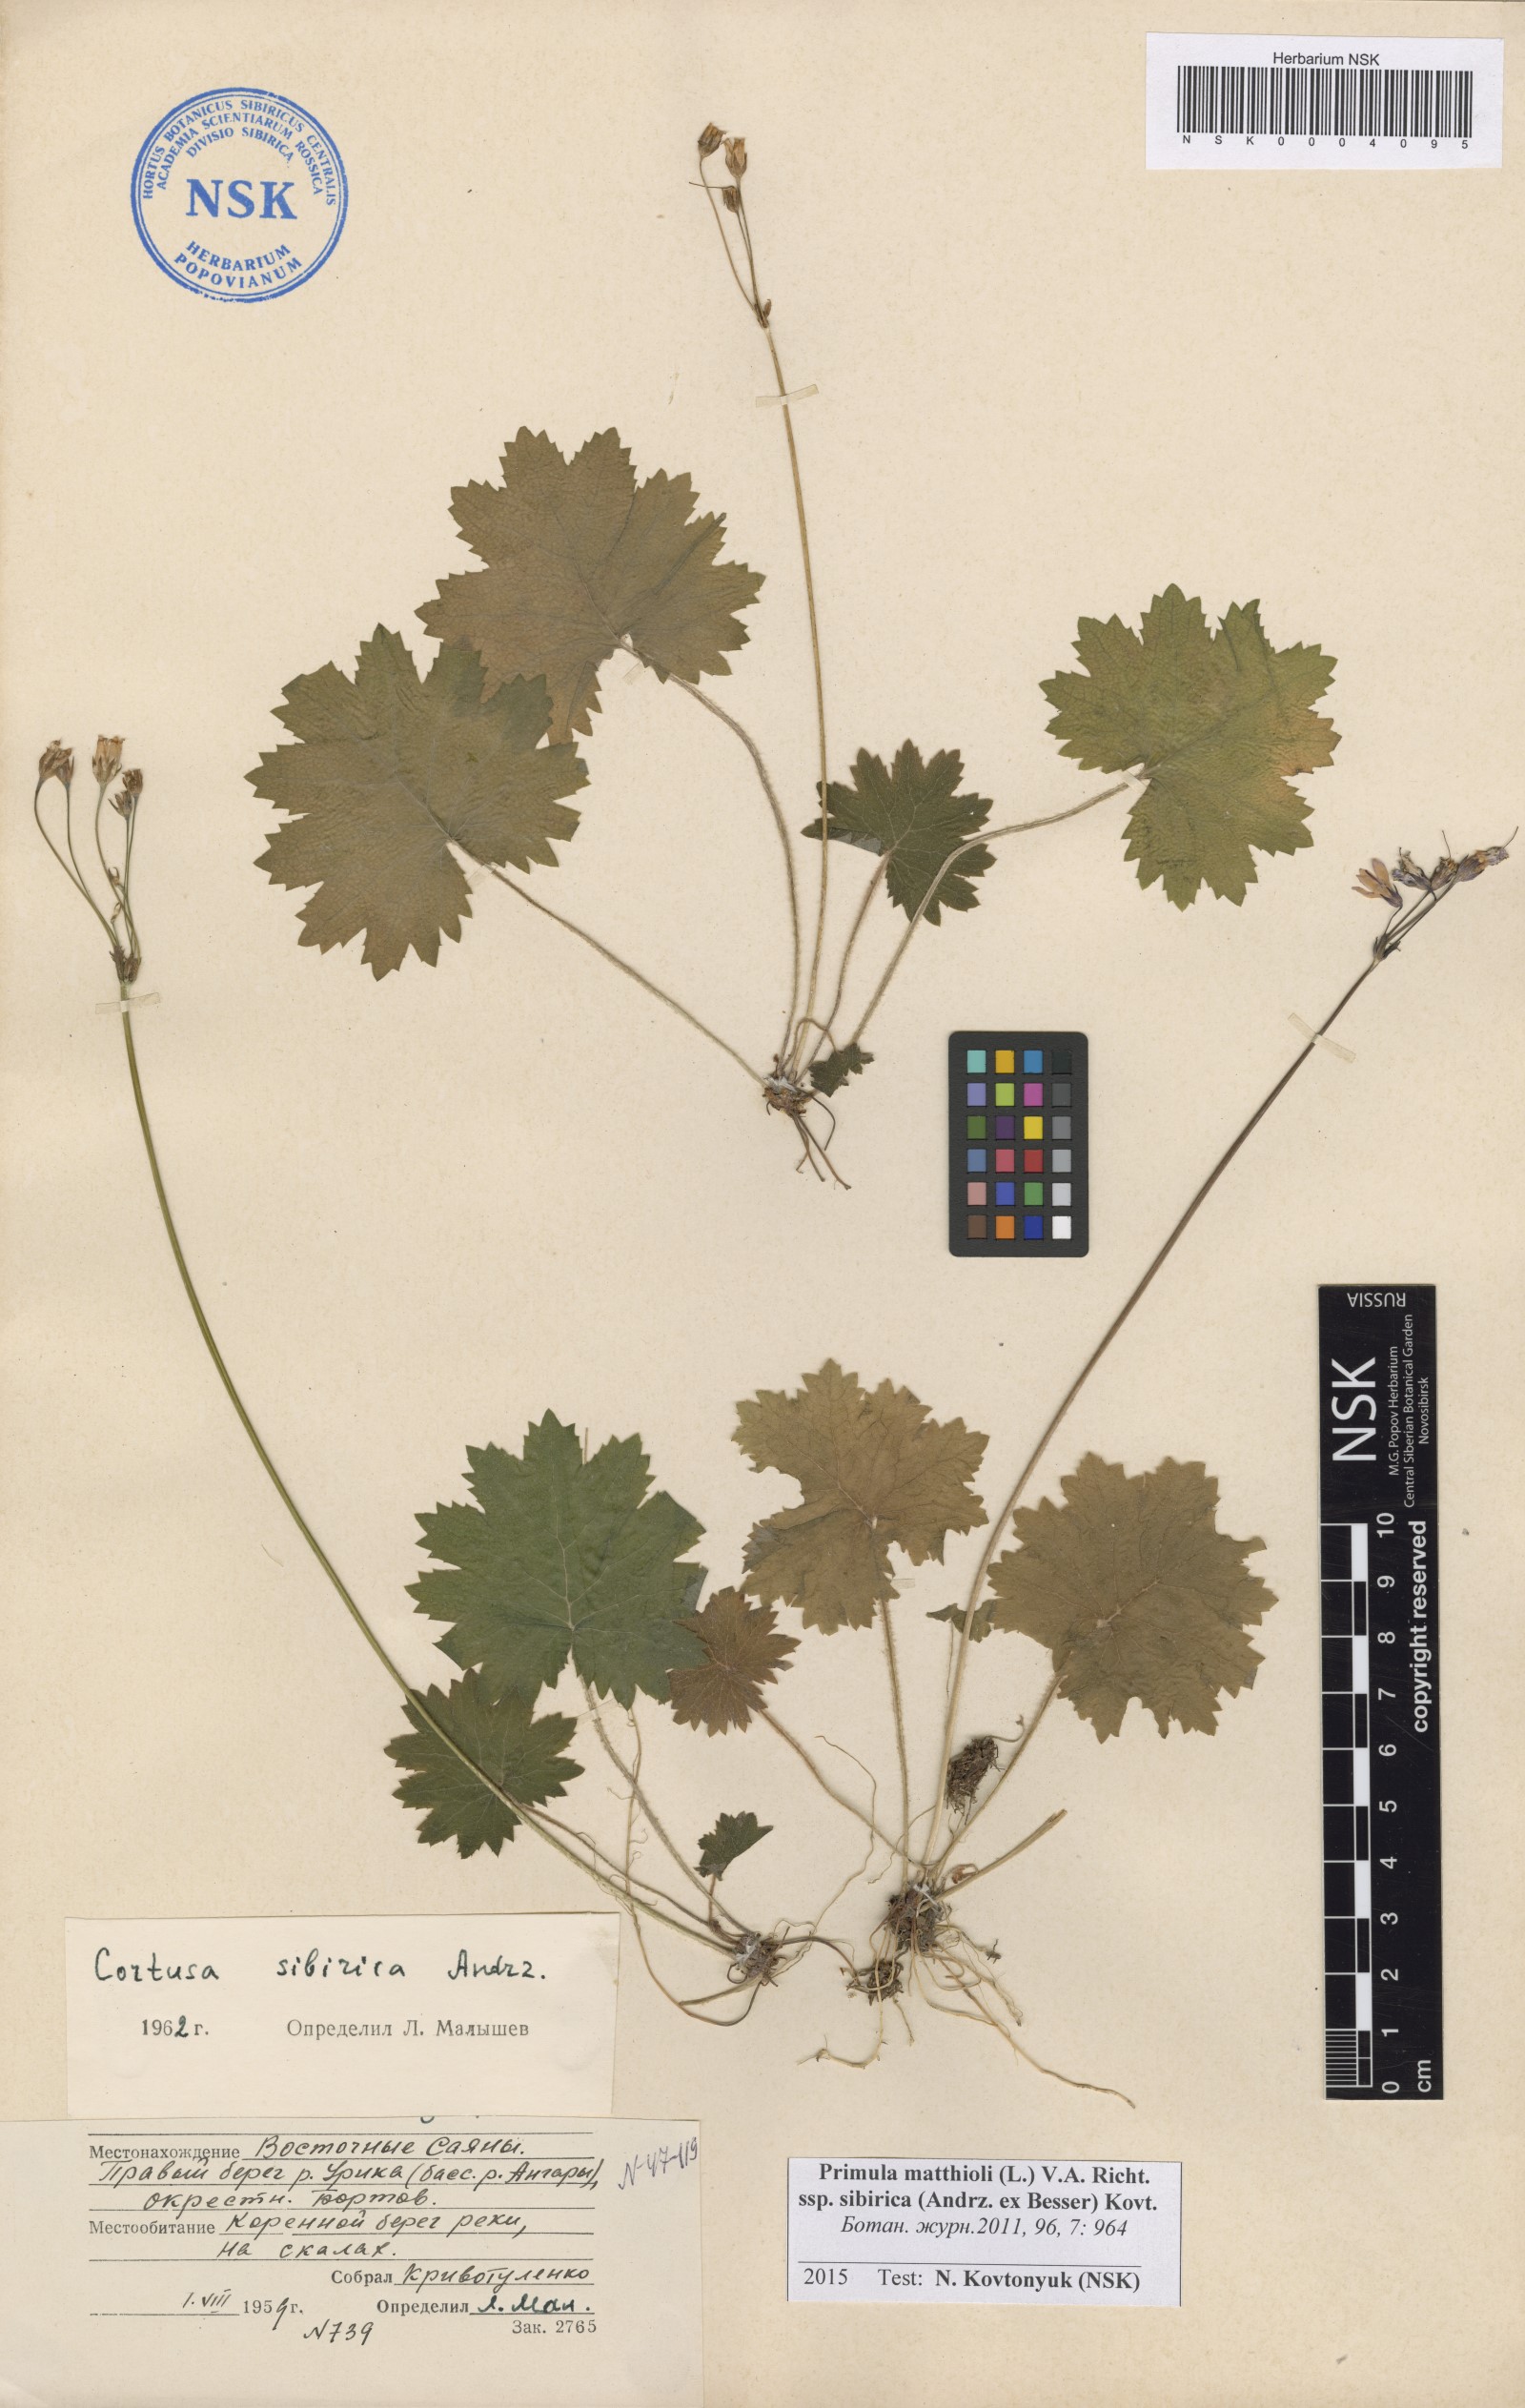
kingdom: Plantae
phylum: Tracheophyta
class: Magnoliopsida
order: Ericales
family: Primulaceae
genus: Primula
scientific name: Primula matthioli
